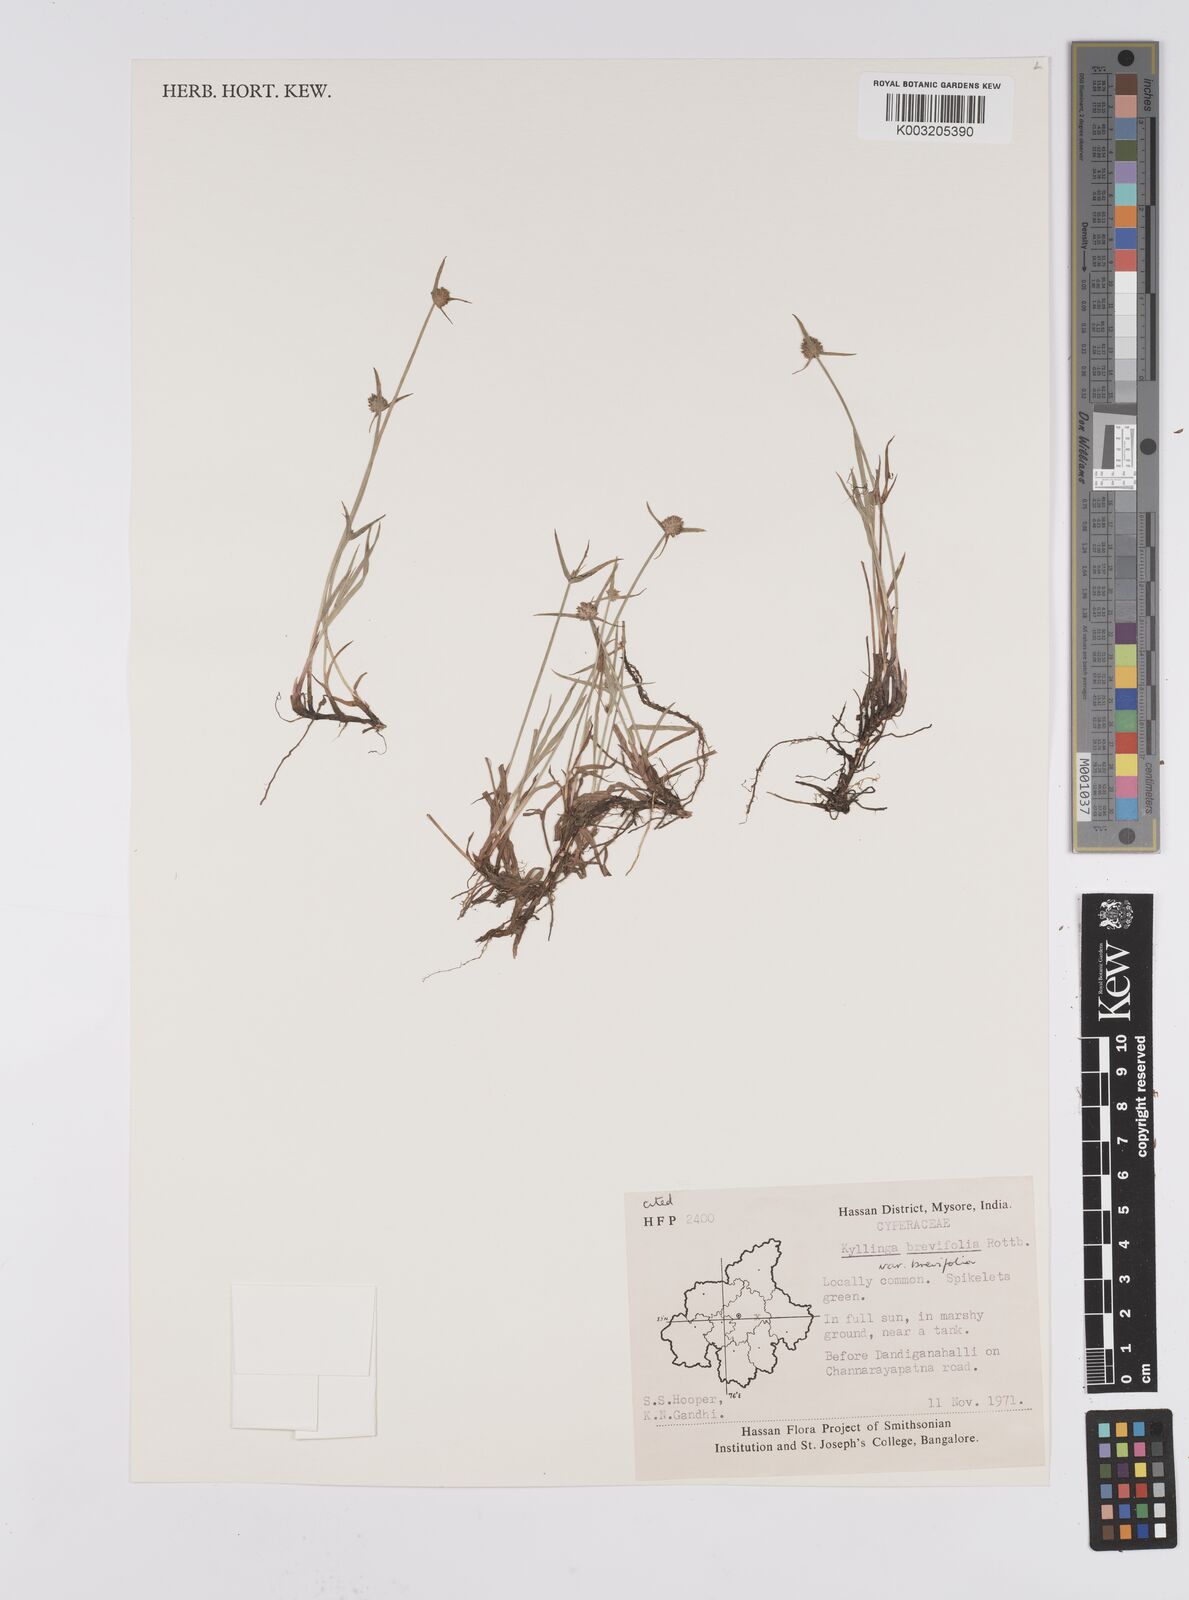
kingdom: Plantae
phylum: Tracheophyta
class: Liliopsida
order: Poales
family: Cyperaceae
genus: Cyperus
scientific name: Cyperus brevifolius
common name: Globe kyllinga
